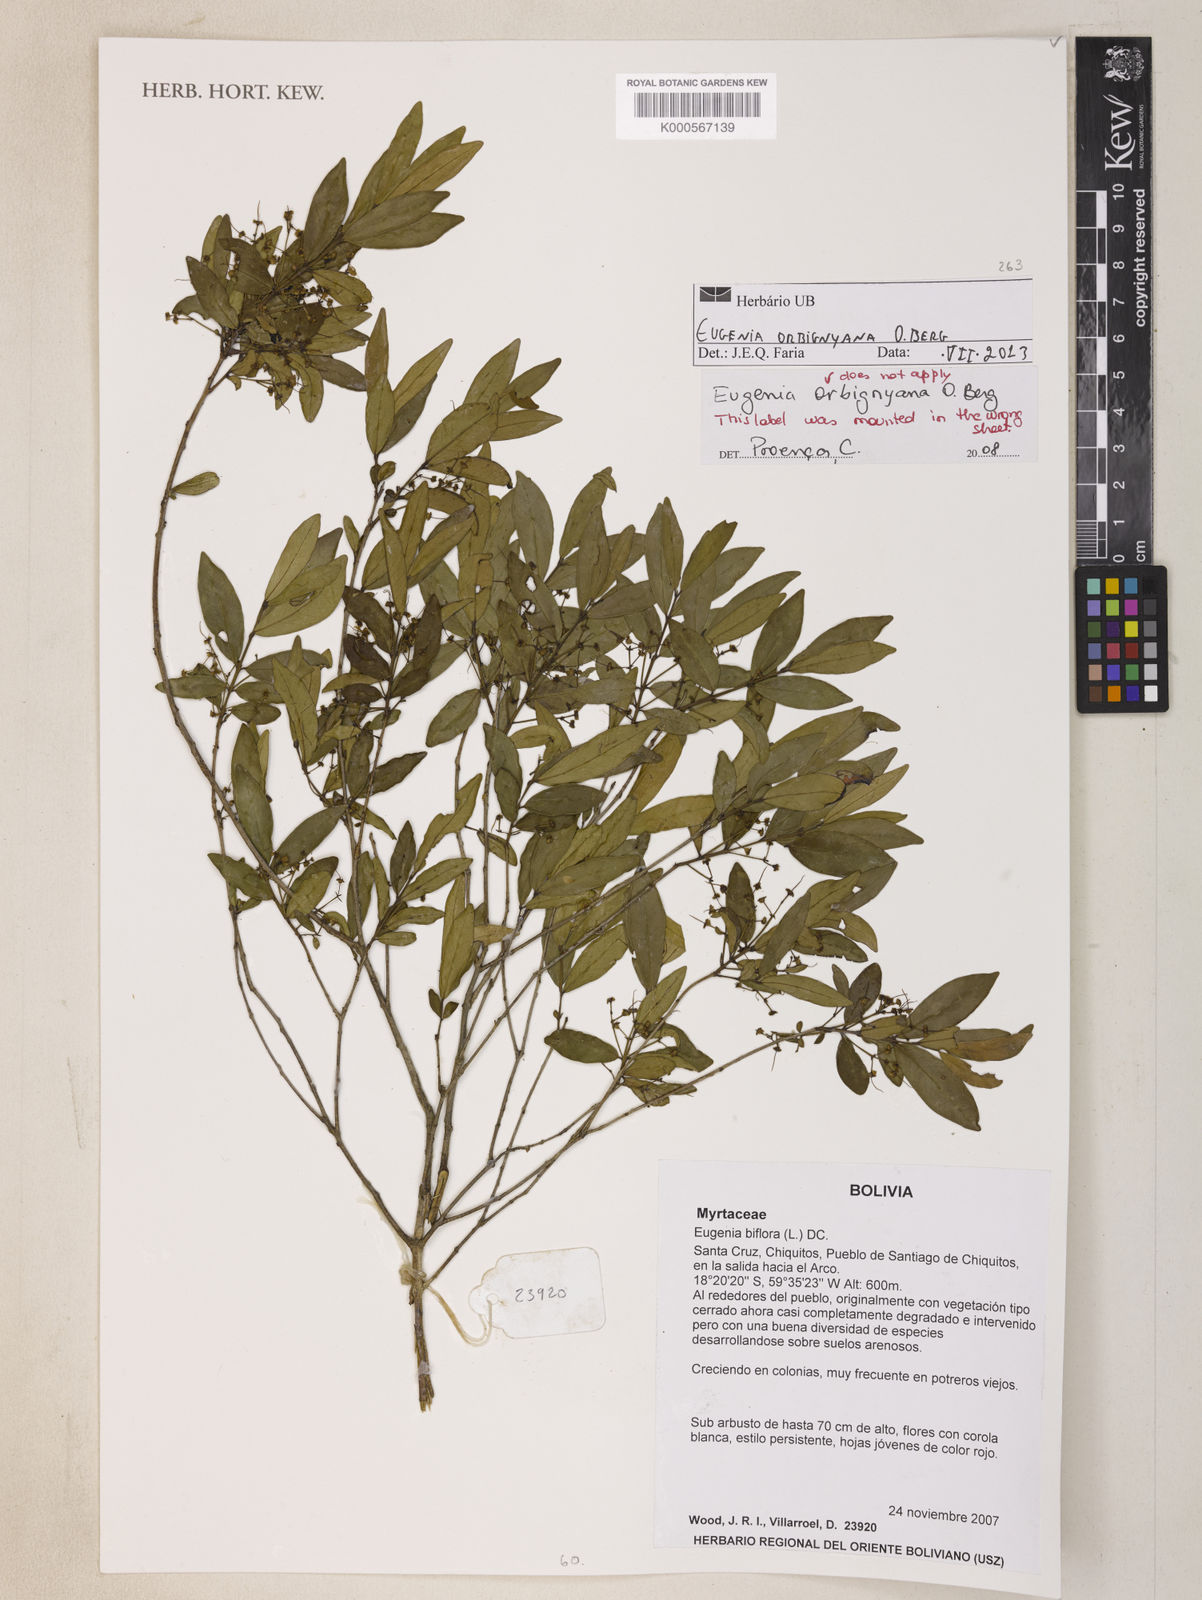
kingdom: Plantae
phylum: Tracheophyta
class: Magnoliopsida
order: Myrtales
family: Myrtaceae
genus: Eugenia
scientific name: Eugenia orbignyana
